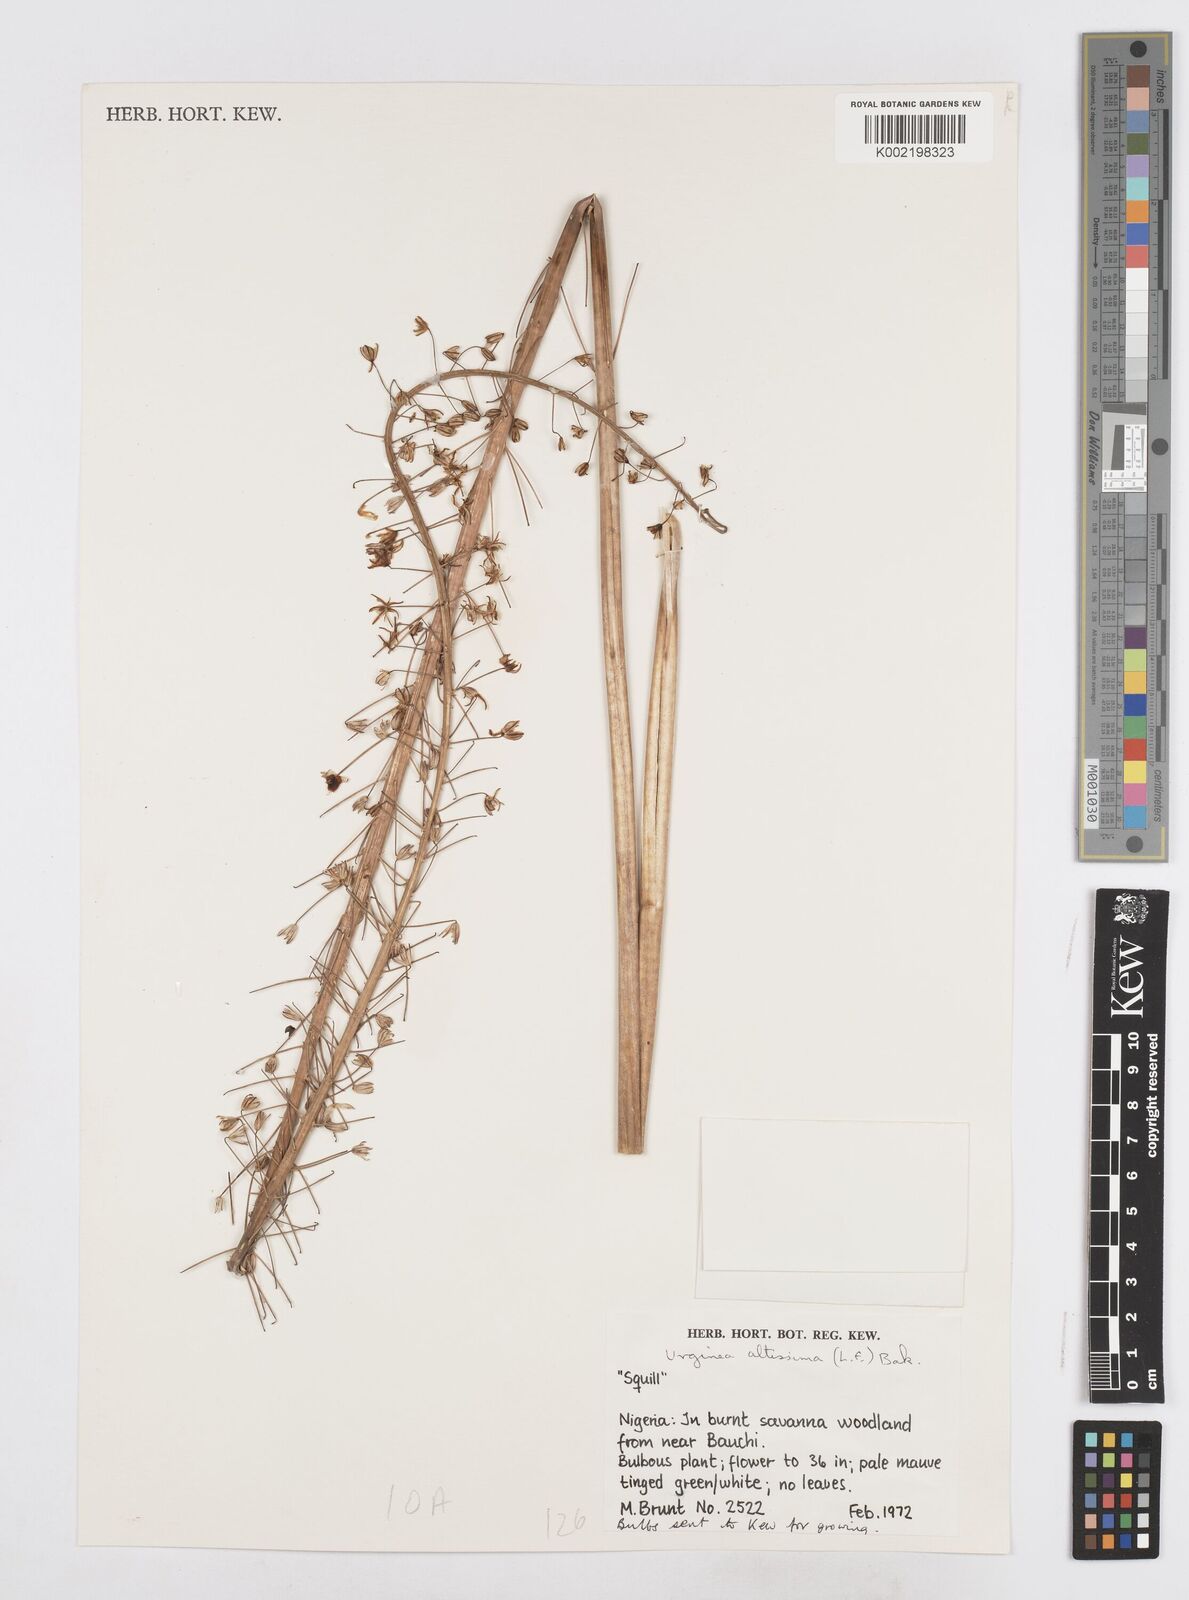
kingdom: Plantae
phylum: Tracheophyta
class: Liliopsida
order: Asparagales
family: Asparagaceae
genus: Drimia
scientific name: Drimia altissima
